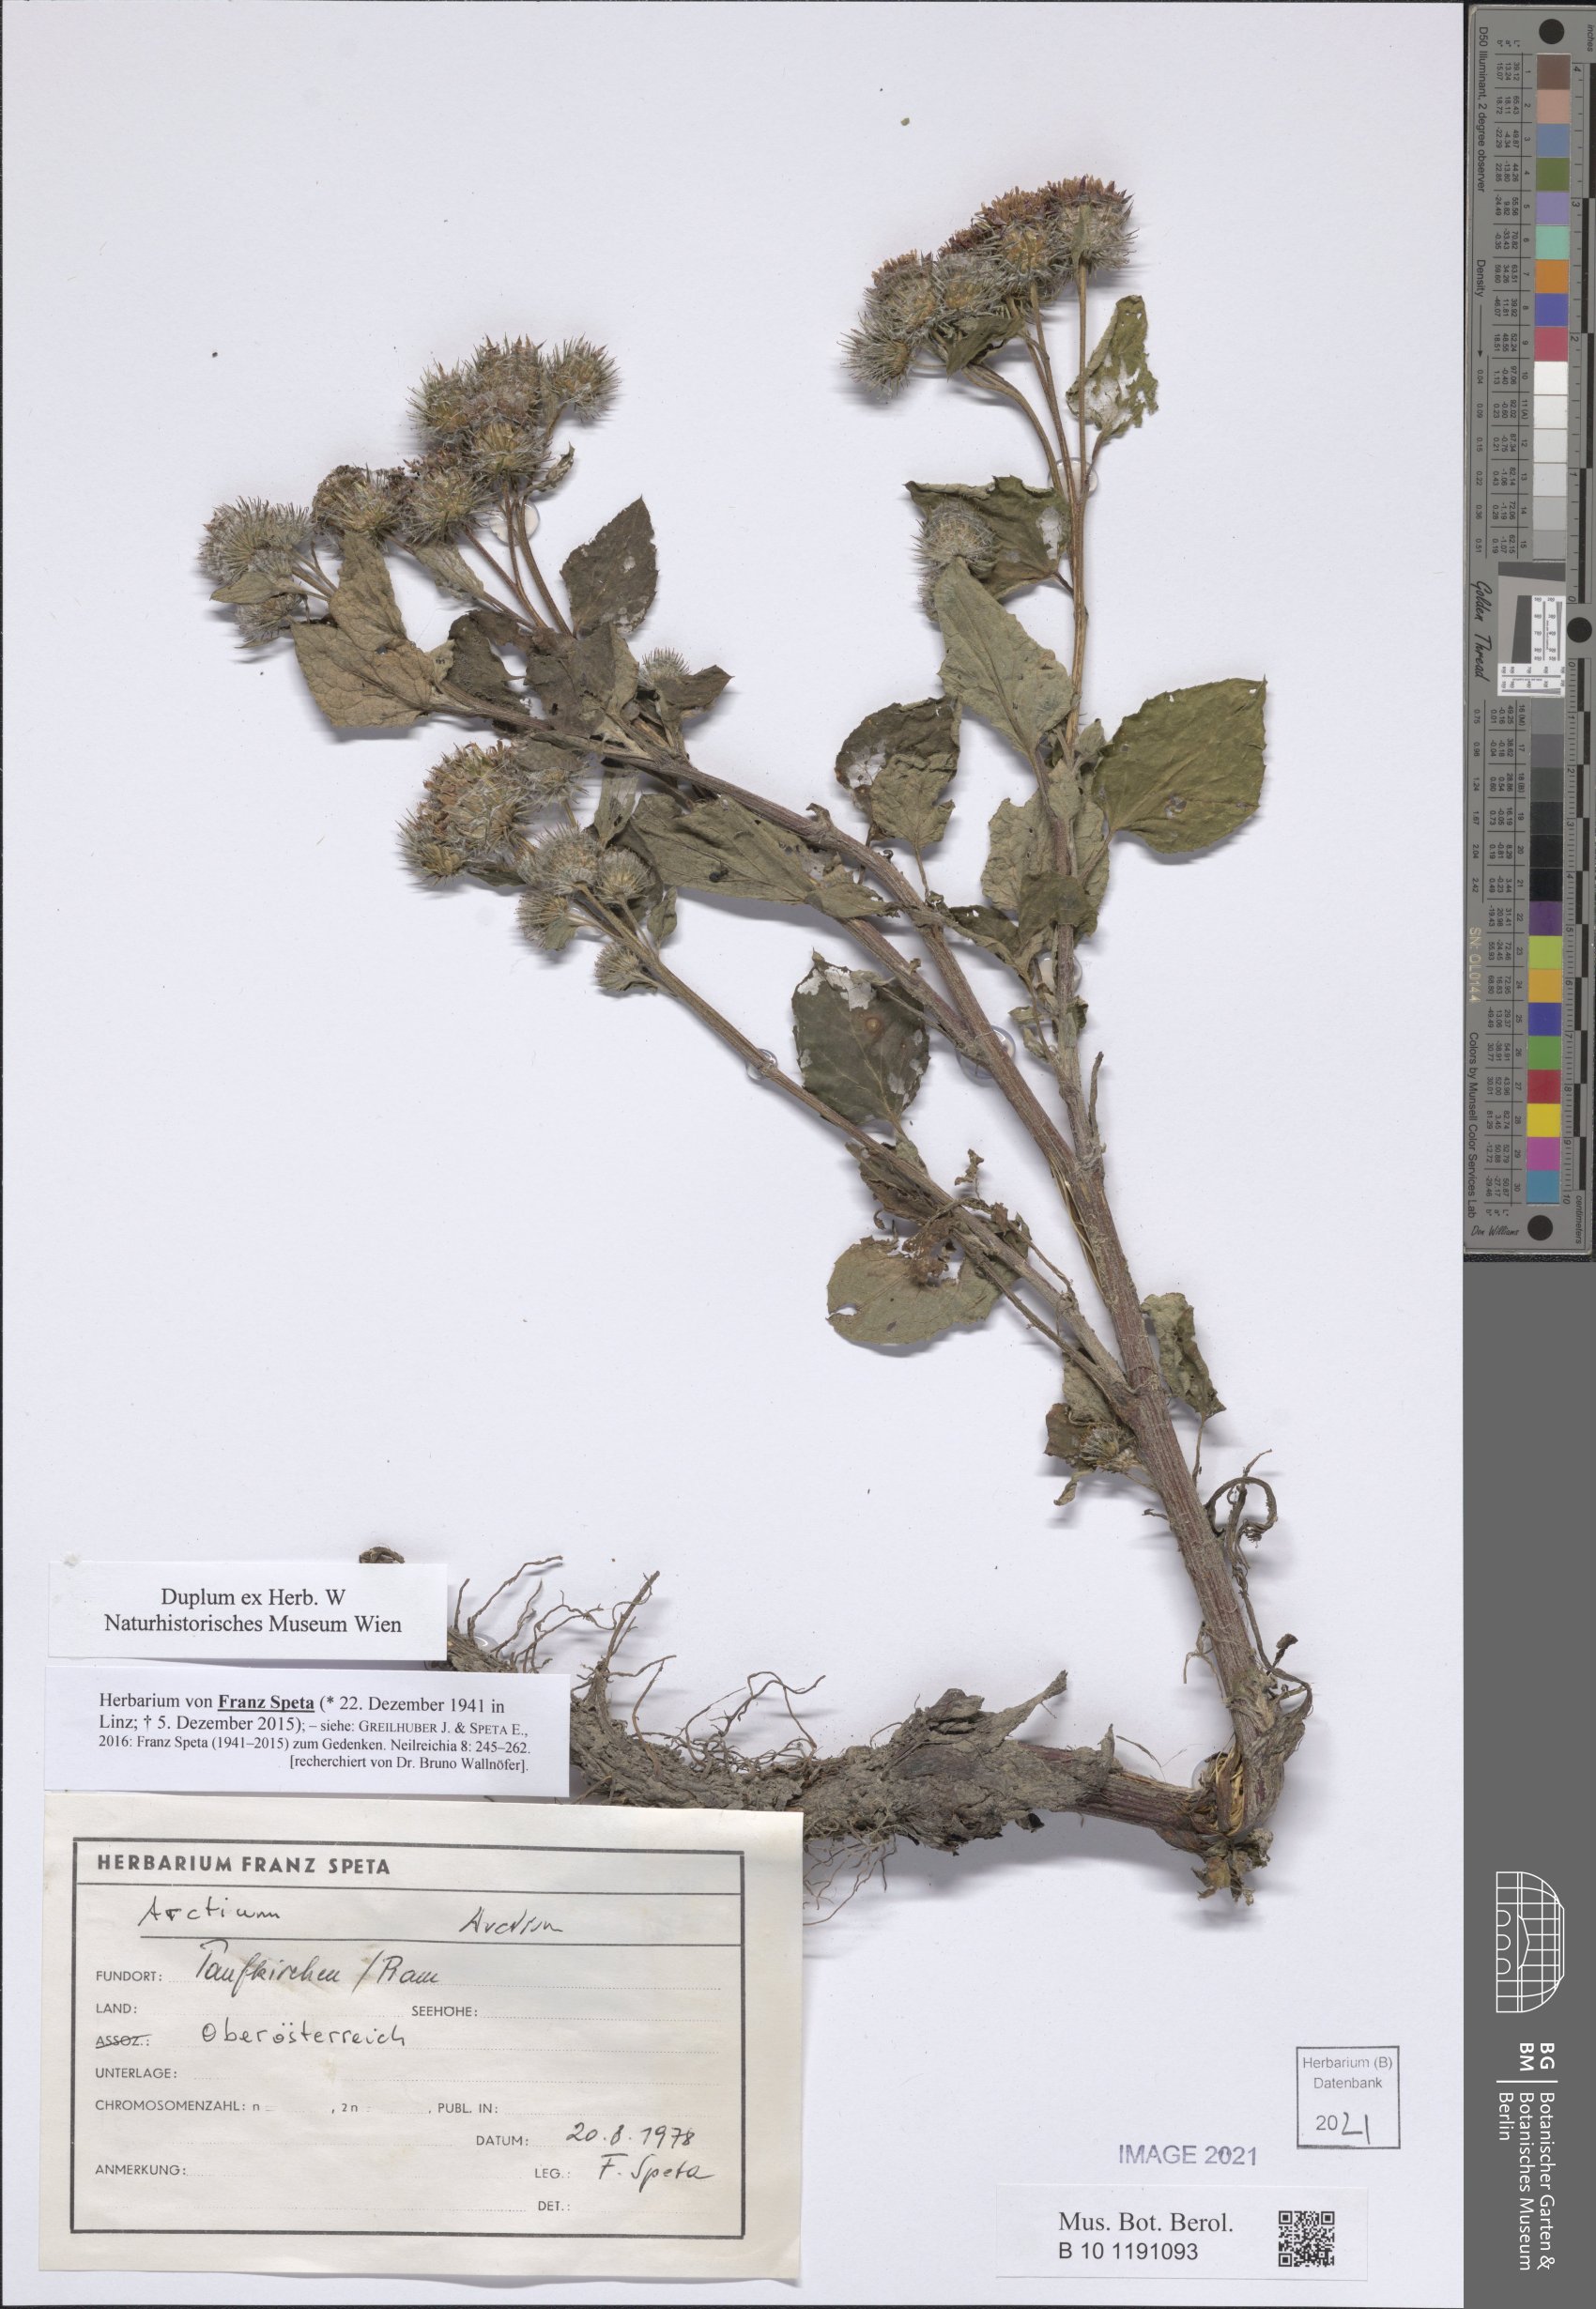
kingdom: Plantae
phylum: Tracheophyta
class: Magnoliopsida
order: Asterales
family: Asteraceae
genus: Arctium
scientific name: Arctium
